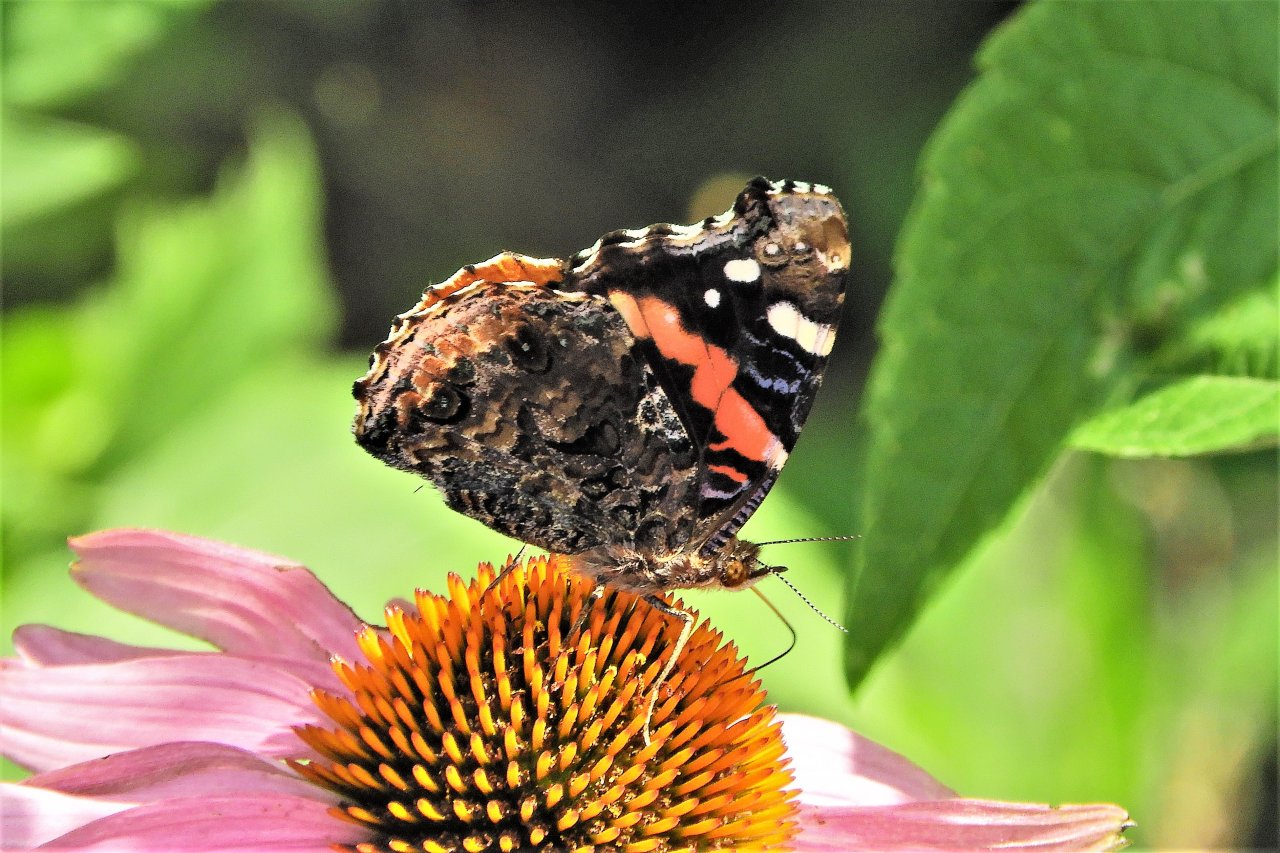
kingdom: Animalia
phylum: Arthropoda
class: Insecta
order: Lepidoptera
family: Nymphalidae
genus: Vanessa
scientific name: Vanessa atalanta
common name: Red Admiral
